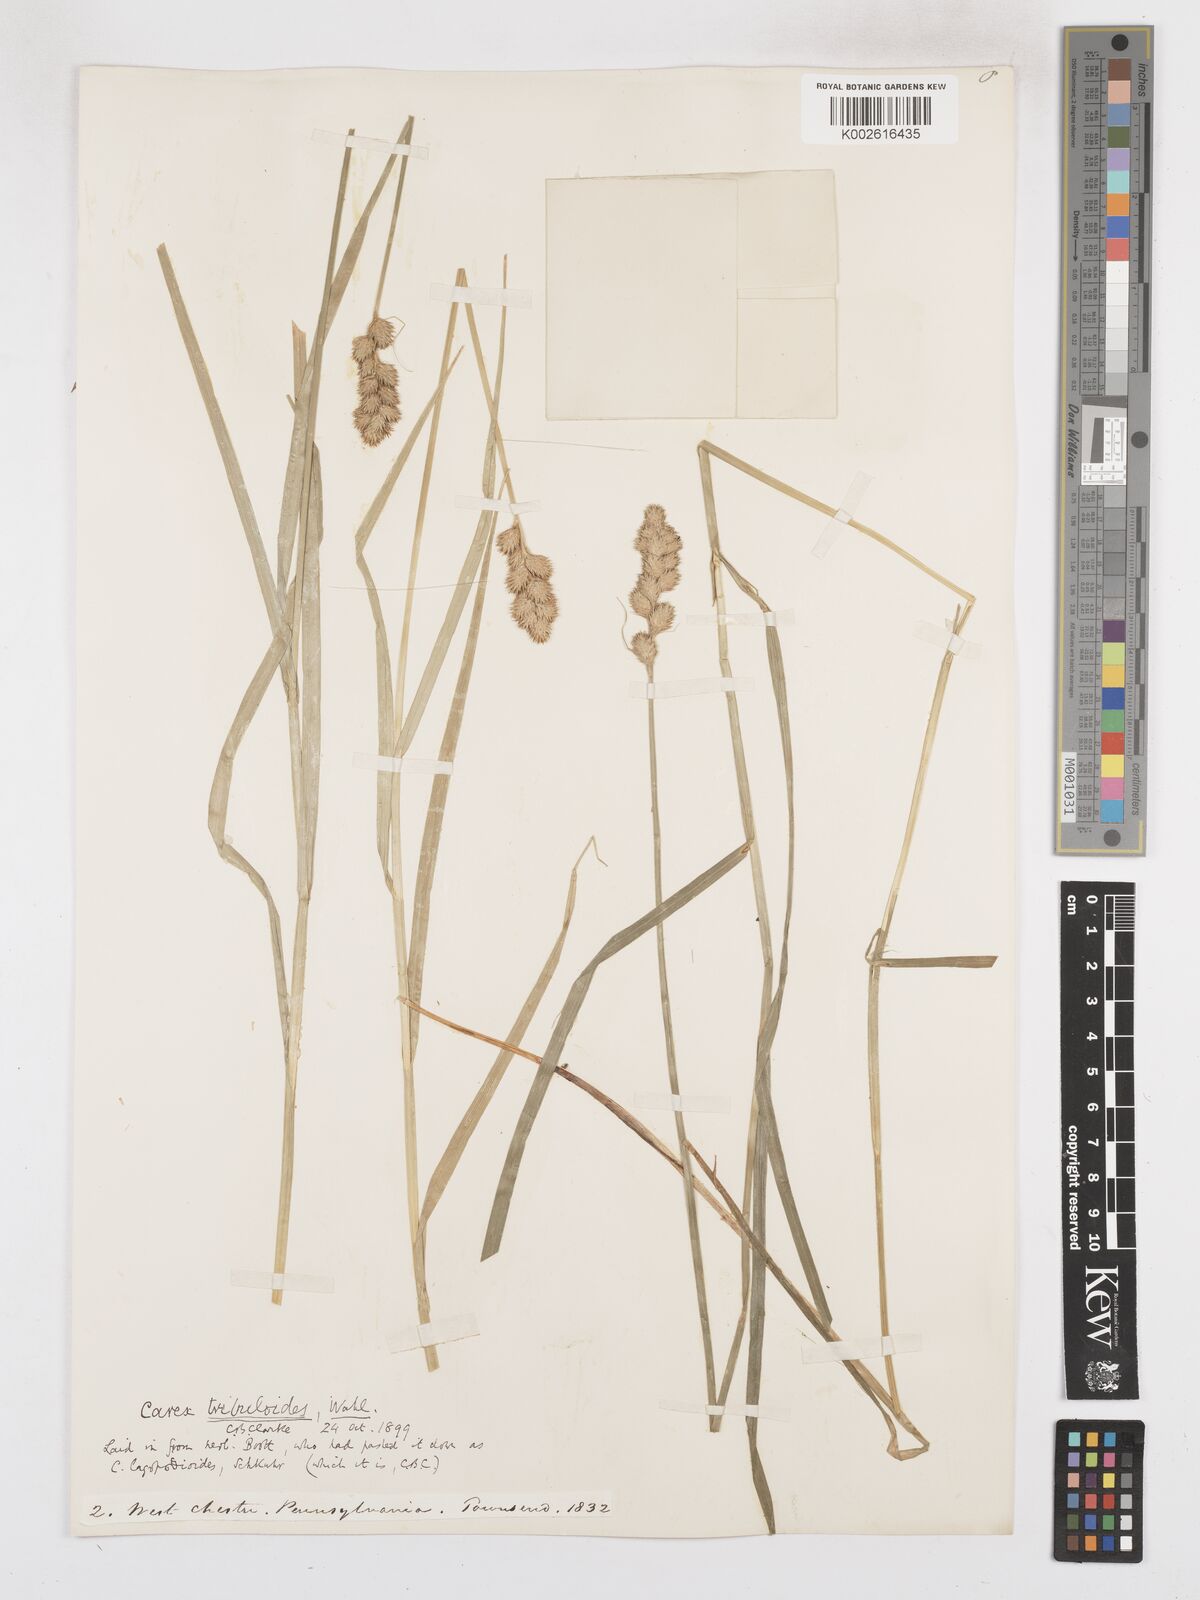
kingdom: Plantae
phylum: Tracheophyta
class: Liliopsida
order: Poales
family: Cyperaceae
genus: Carex
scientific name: Carex tribuloides
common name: Blunt broom sedge
